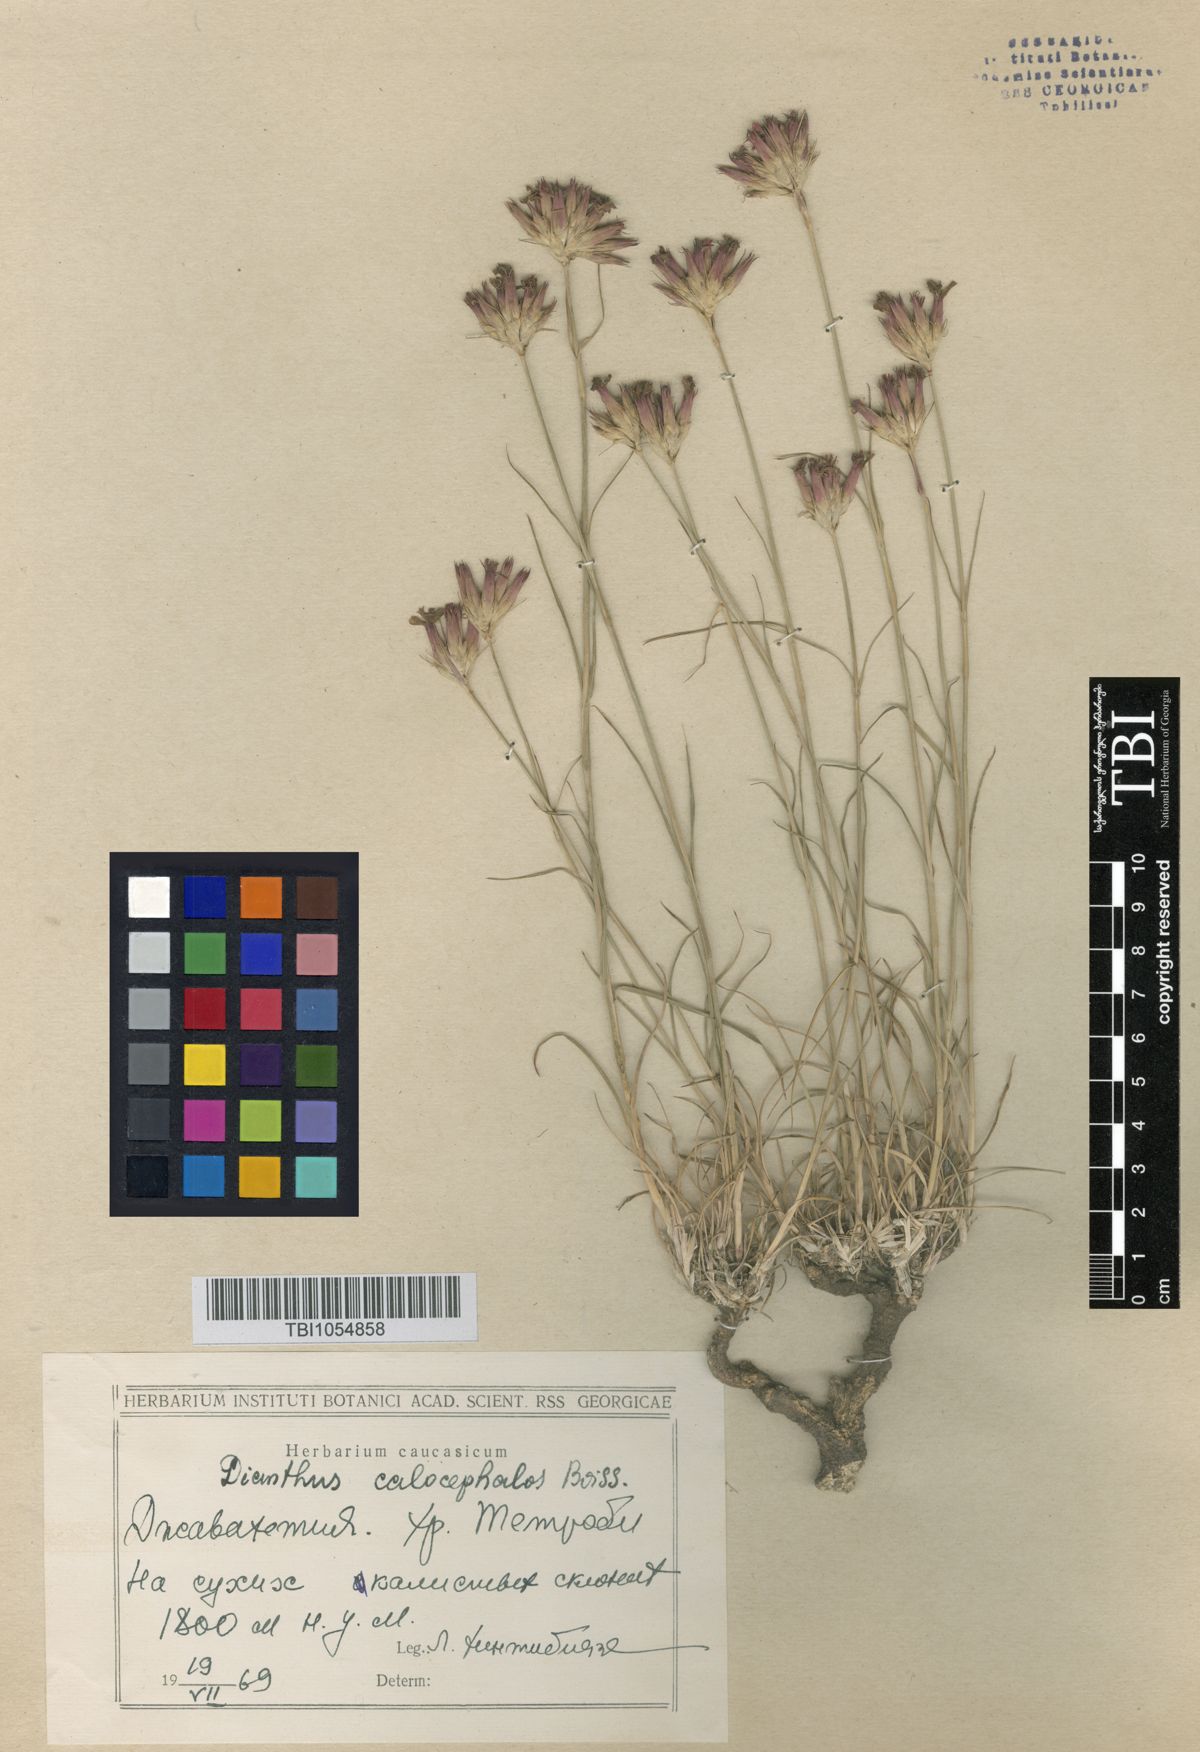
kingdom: Plantae
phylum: Tracheophyta
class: Magnoliopsida
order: Caryophyllales
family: Caryophyllaceae
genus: Dianthus
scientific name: Dianthus cruentus
